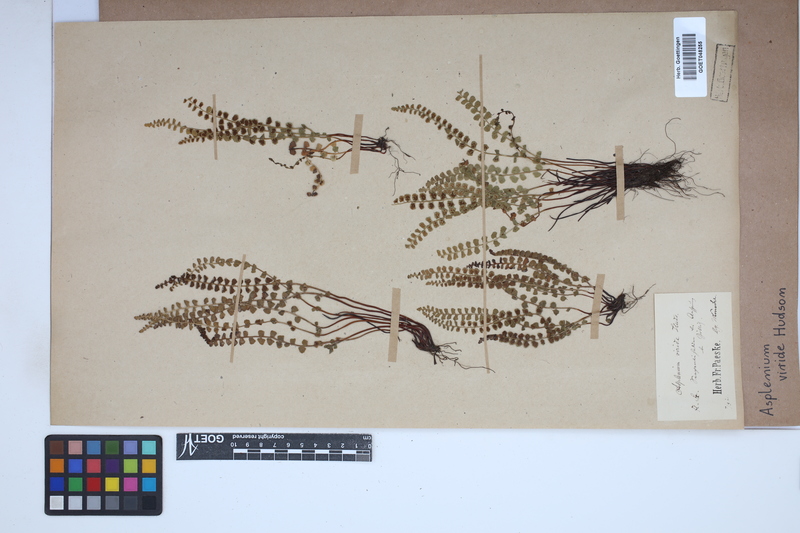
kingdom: Plantae
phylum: Tracheophyta
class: Polypodiopsida
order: Polypodiales
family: Aspleniaceae
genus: Asplenium
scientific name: Asplenium viride
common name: Green spleenwort
